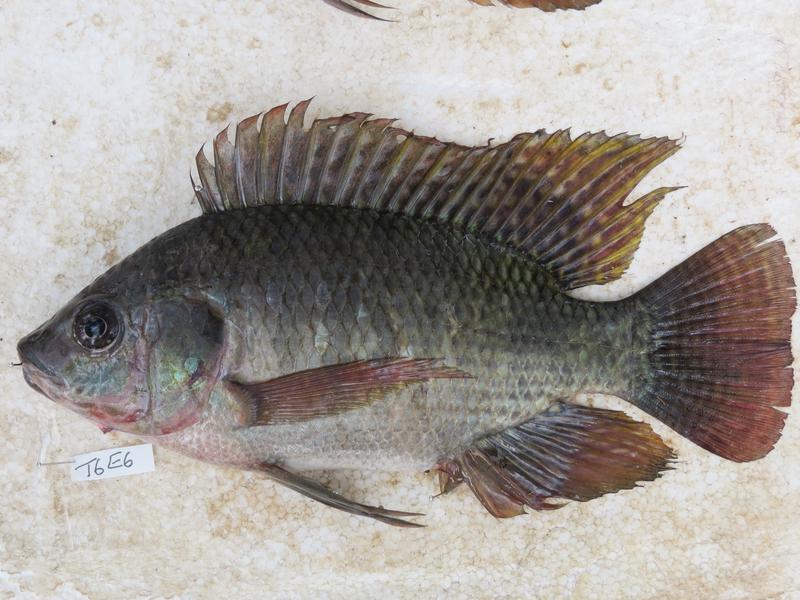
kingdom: Animalia
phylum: Chordata
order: Perciformes
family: Cichlidae
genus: Oreochromis
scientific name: Oreochromis niloticus
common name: Nile tilapia
